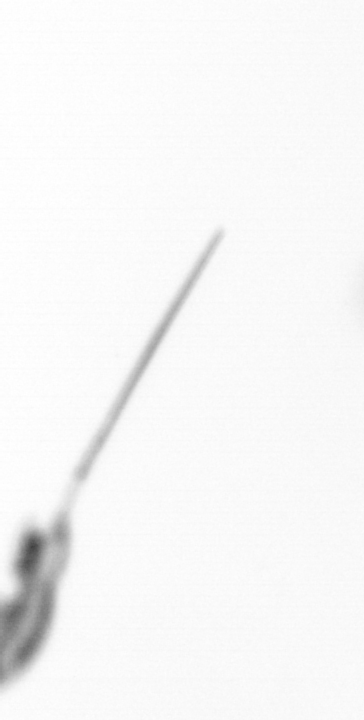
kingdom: Animalia
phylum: Arthropoda
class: Copepoda
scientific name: Copepoda
